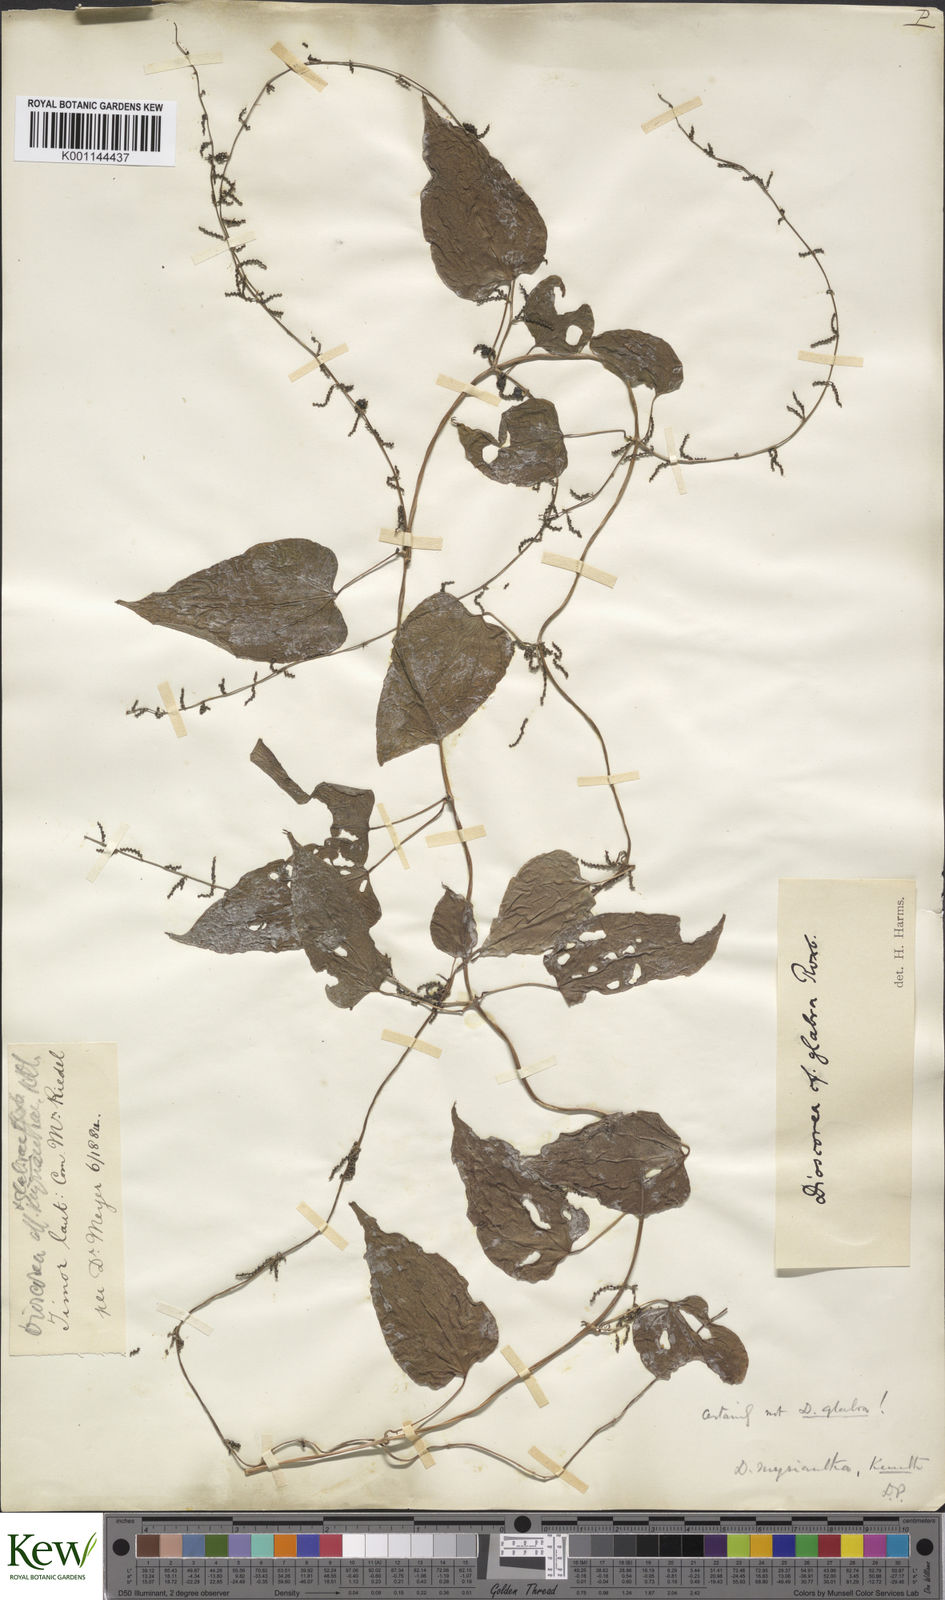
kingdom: Plantae
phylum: Tracheophyta
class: Liliopsida
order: Dioscoreales
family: Dioscoreaceae
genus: Dioscorea
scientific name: Dioscorea filiformis
